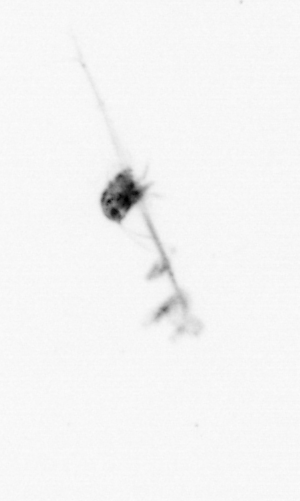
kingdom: Animalia
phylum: Arthropoda
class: Copepoda
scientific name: Copepoda
